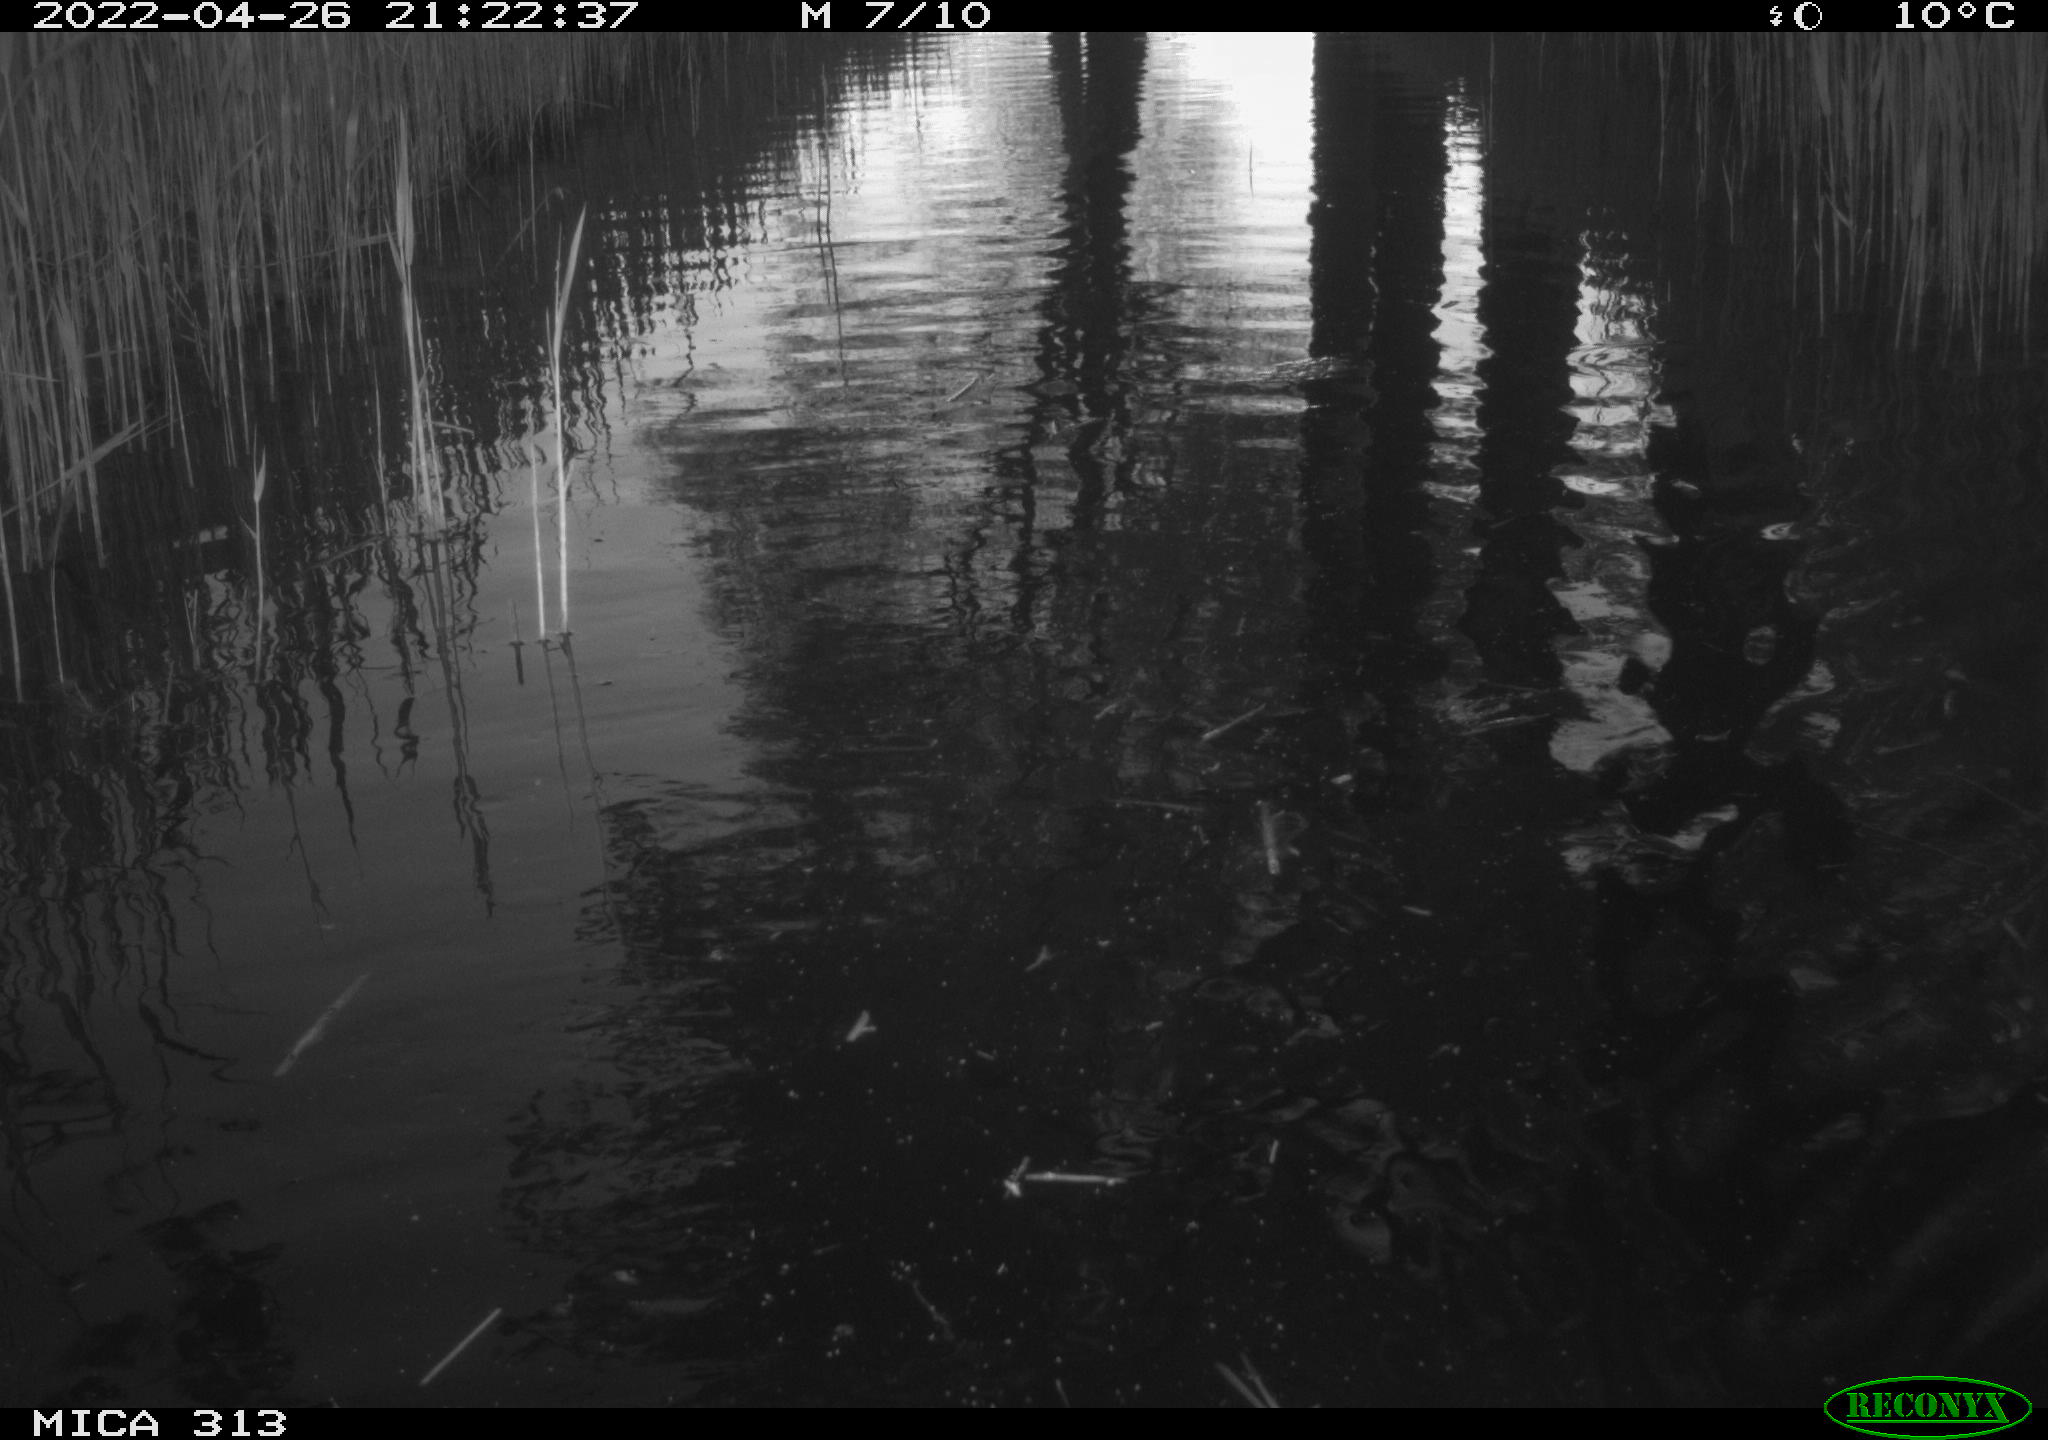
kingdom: Animalia
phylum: Chordata
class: Mammalia
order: Rodentia
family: Cricetidae
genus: Ondatra
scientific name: Ondatra zibethicus
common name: Muskrat
